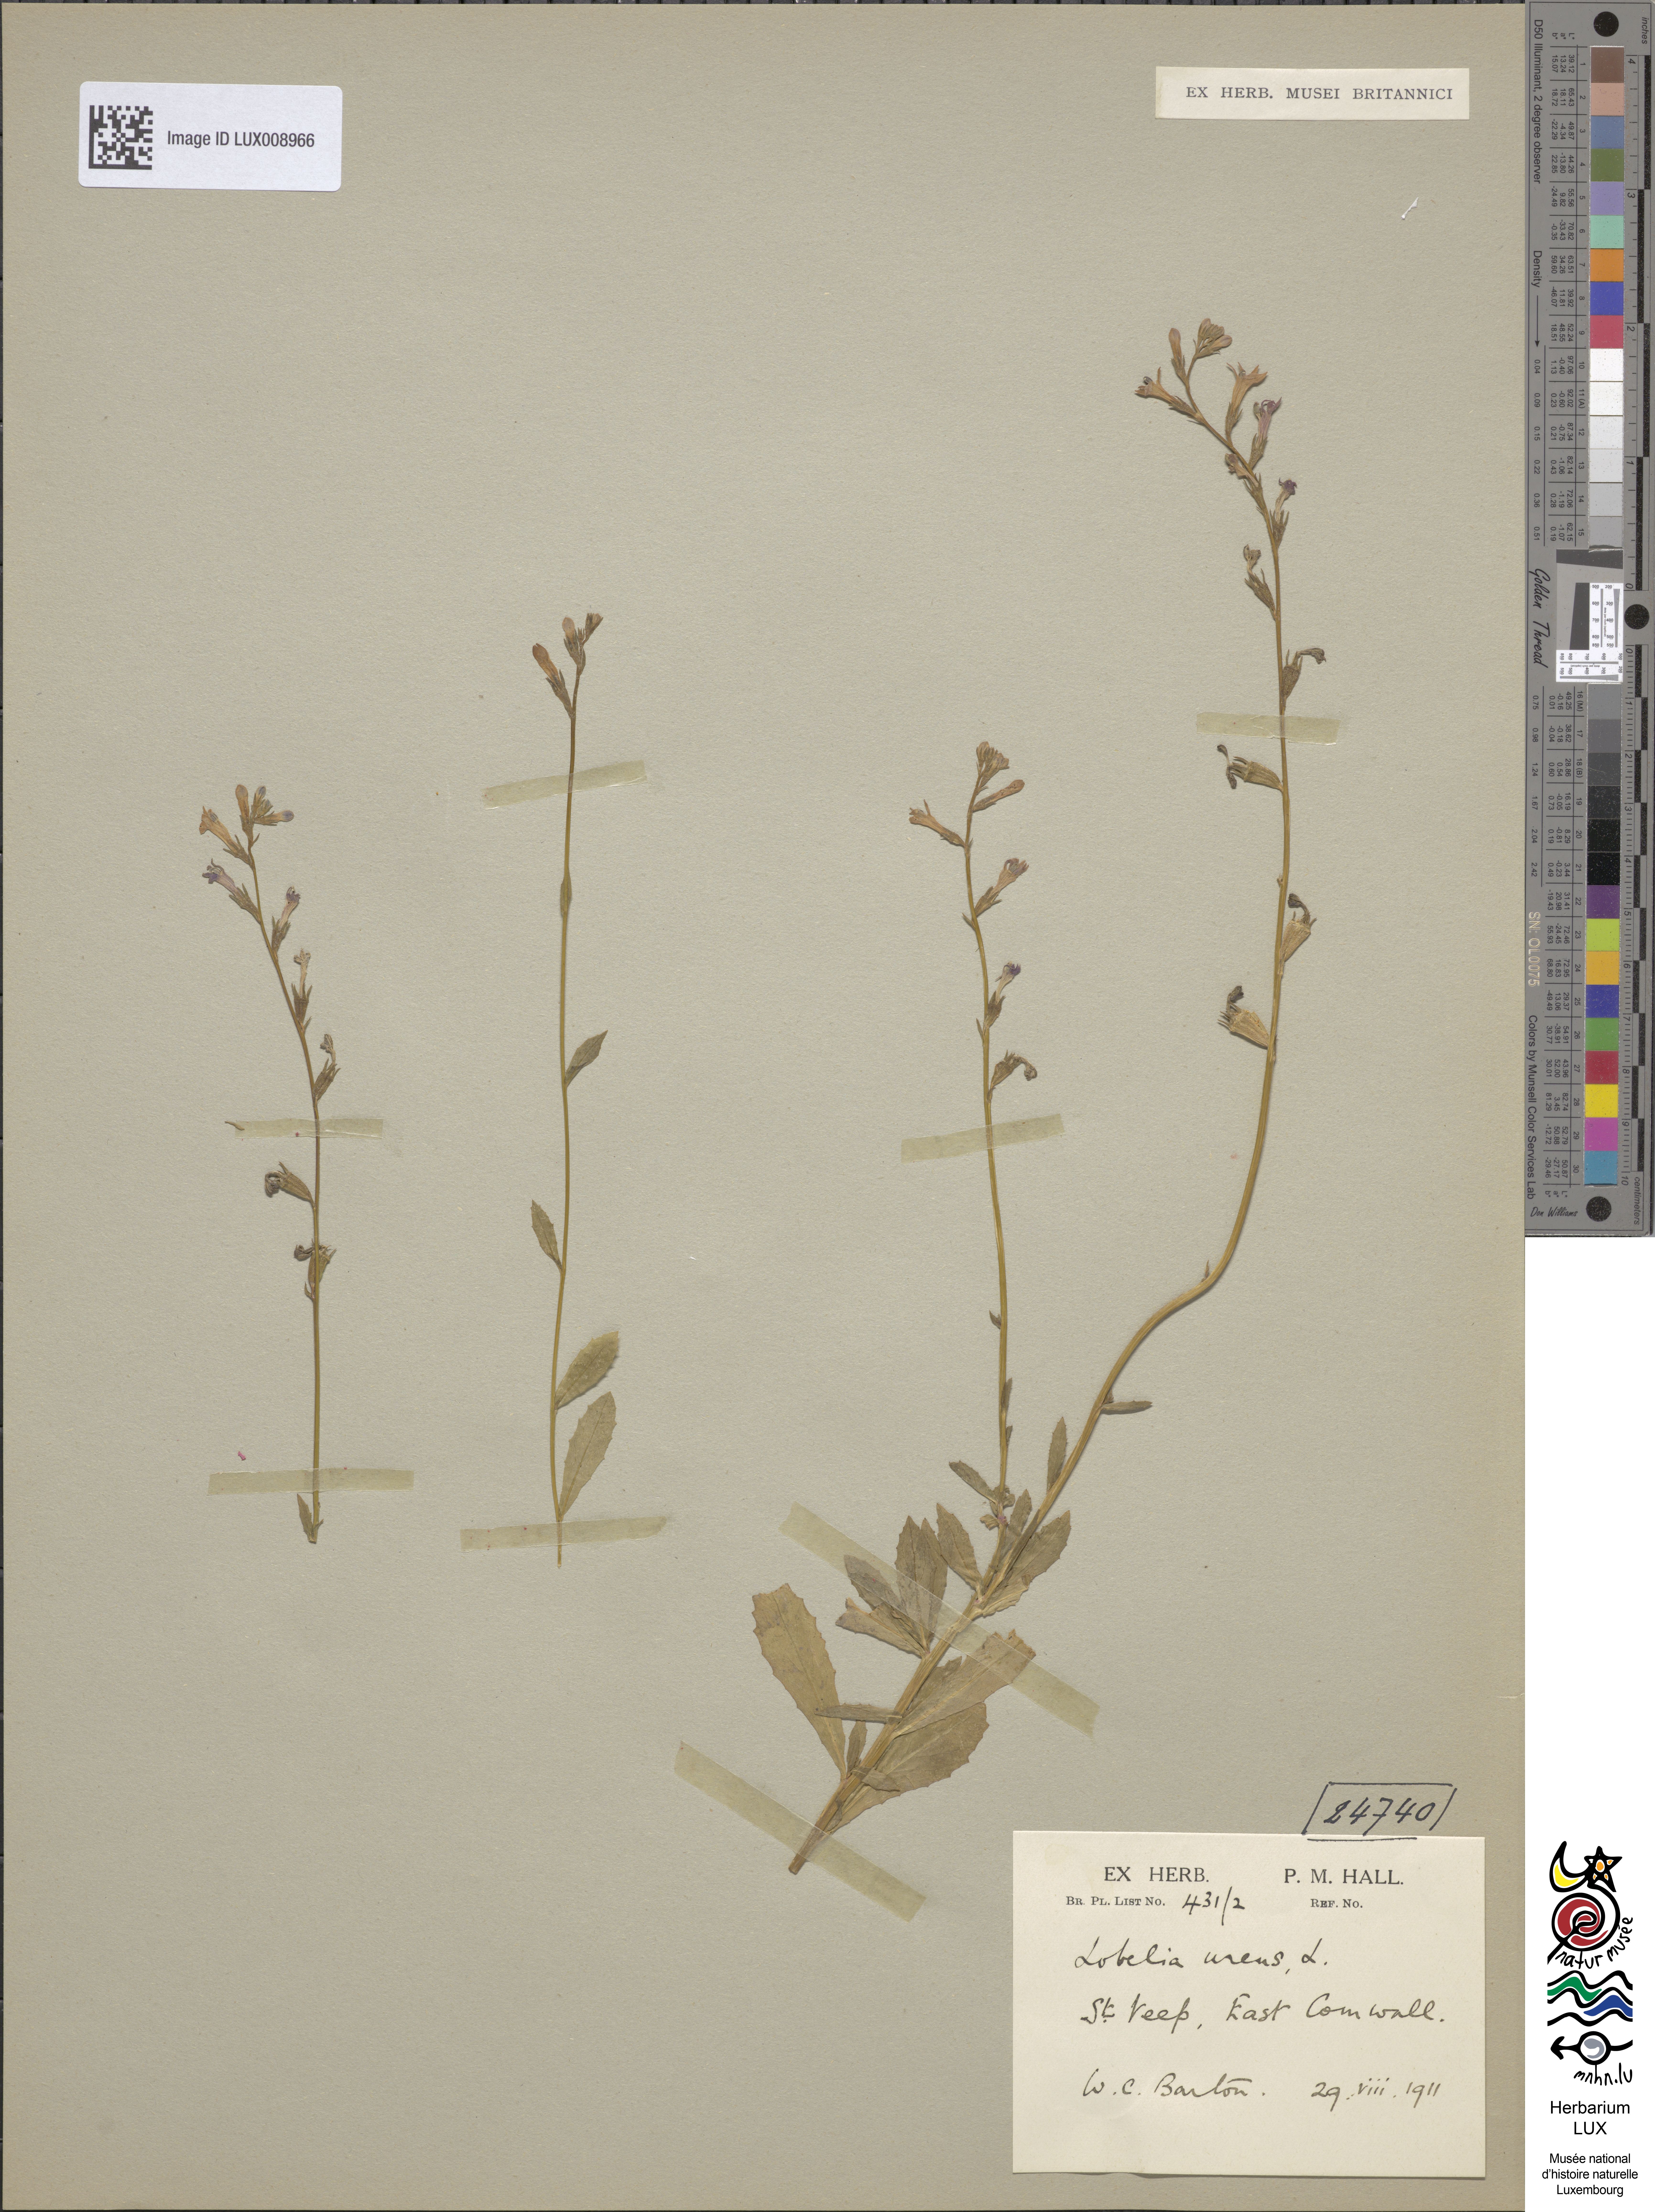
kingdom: Plantae
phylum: Tracheophyta
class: Magnoliopsida
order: Asterales
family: Campanulaceae
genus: Lobelia
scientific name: Lobelia urens
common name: Heath lobelia
